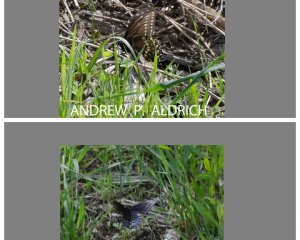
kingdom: Animalia
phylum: Arthropoda
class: Insecta
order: Lepidoptera
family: Papilionidae
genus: Papilio
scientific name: Papilio polyxenes
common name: Black Swallowtail
